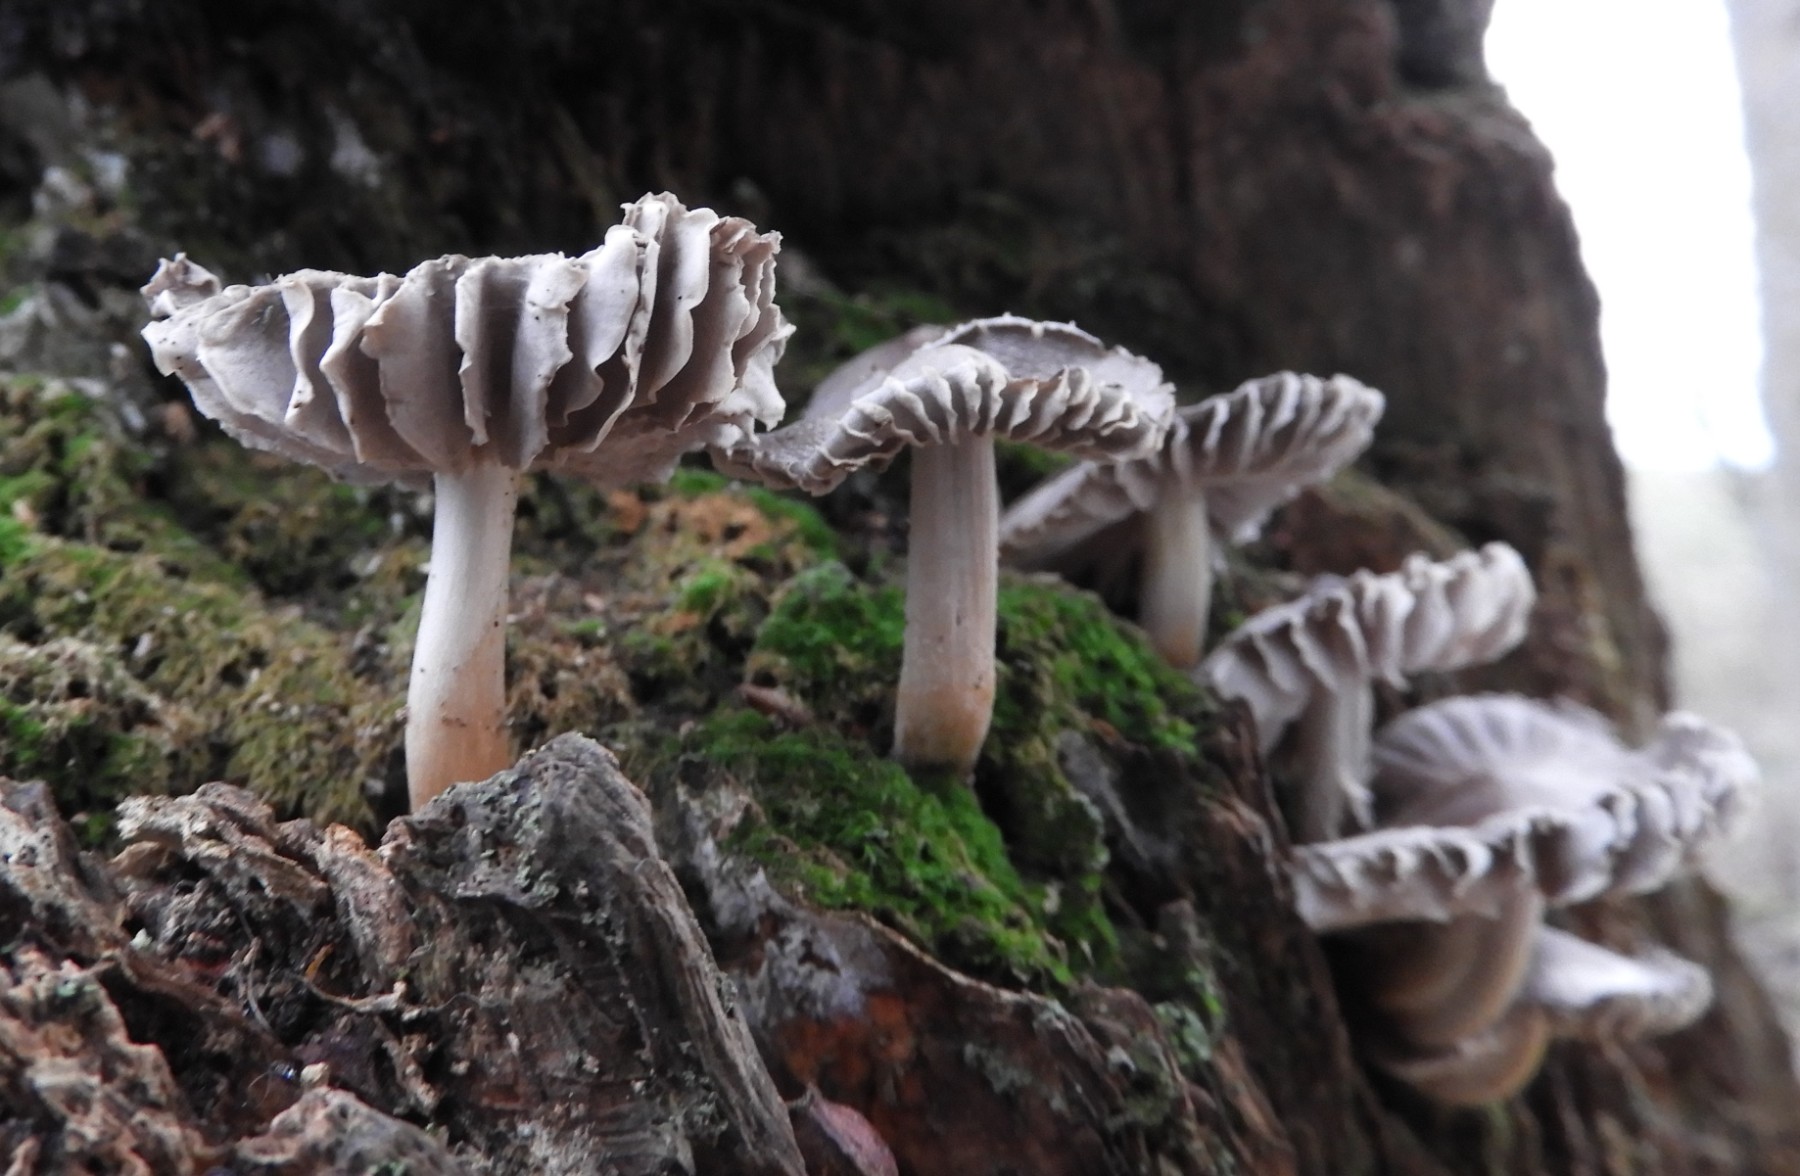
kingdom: Fungi
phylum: Basidiomycota
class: Agaricomycetes
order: Agaricales
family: Mycenaceae
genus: Mycena
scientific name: Mycena galericulata
